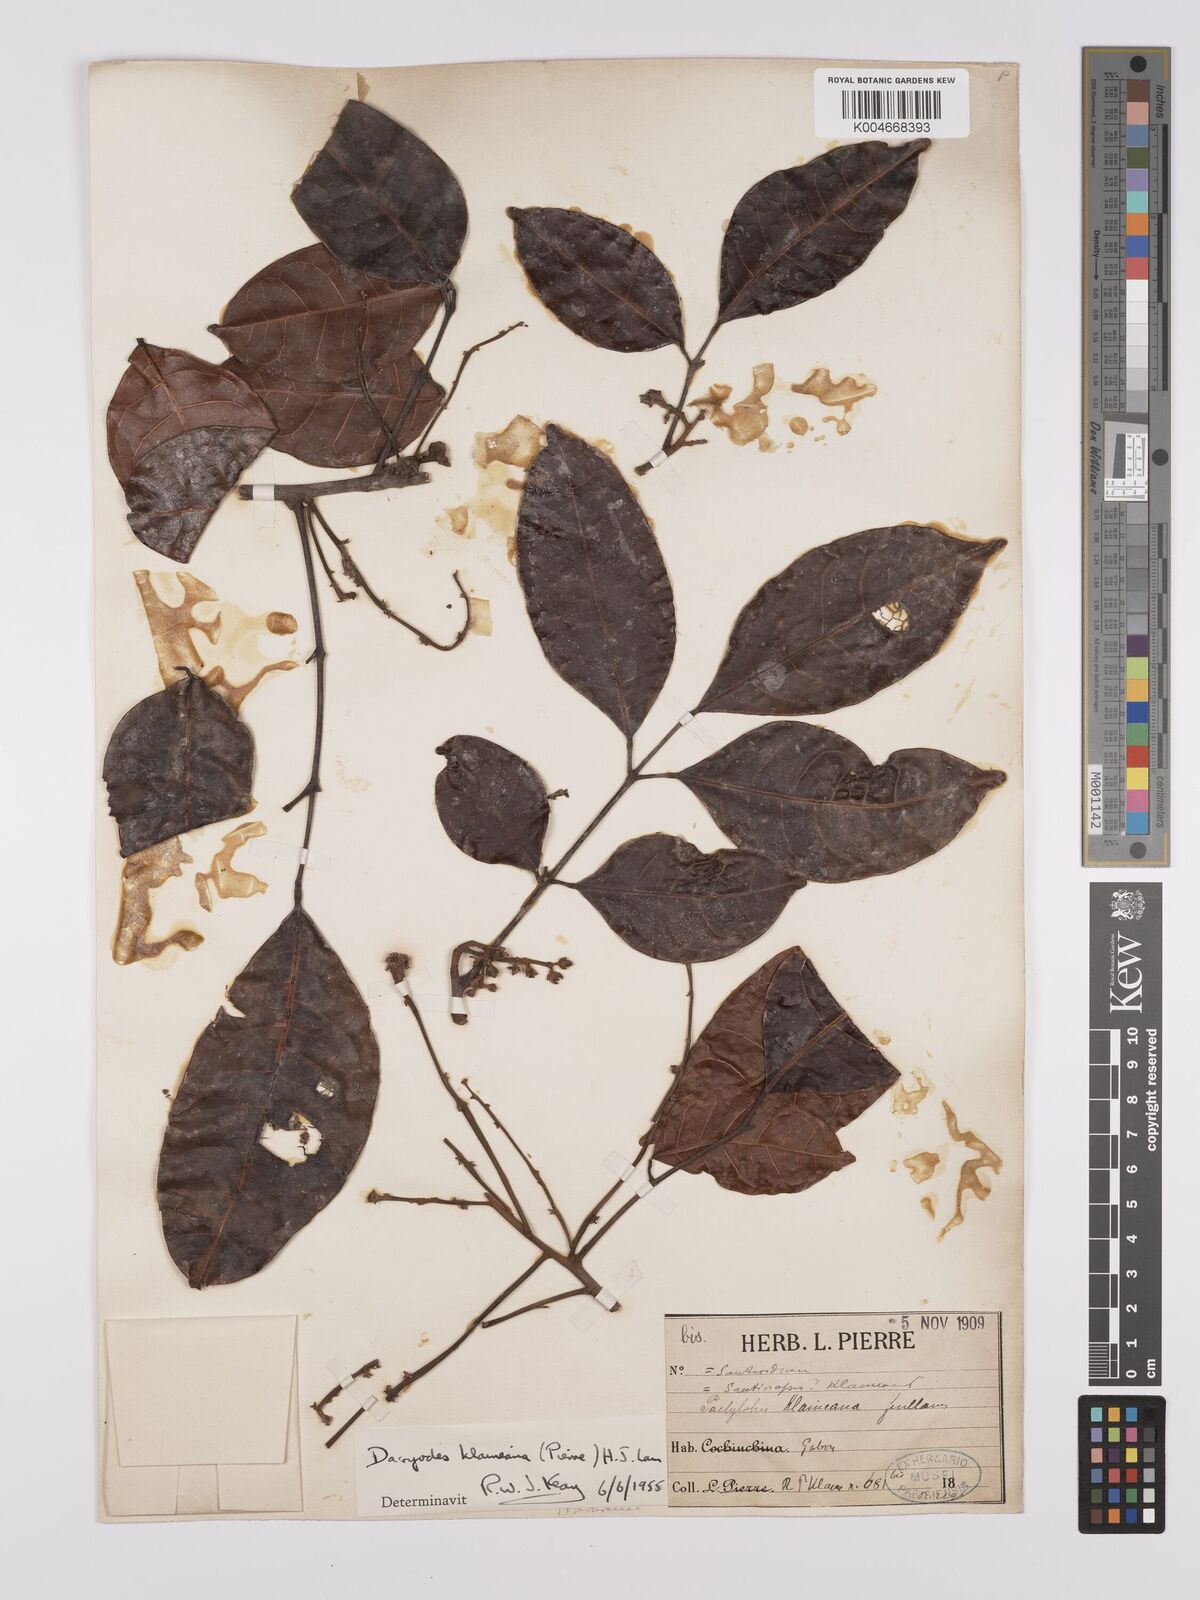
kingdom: Plantae
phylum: Tracheophyta
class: Magnoliopsida
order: Sapindales
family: Burseraceae
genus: Pachylobus
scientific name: Pachylobus klaineana
